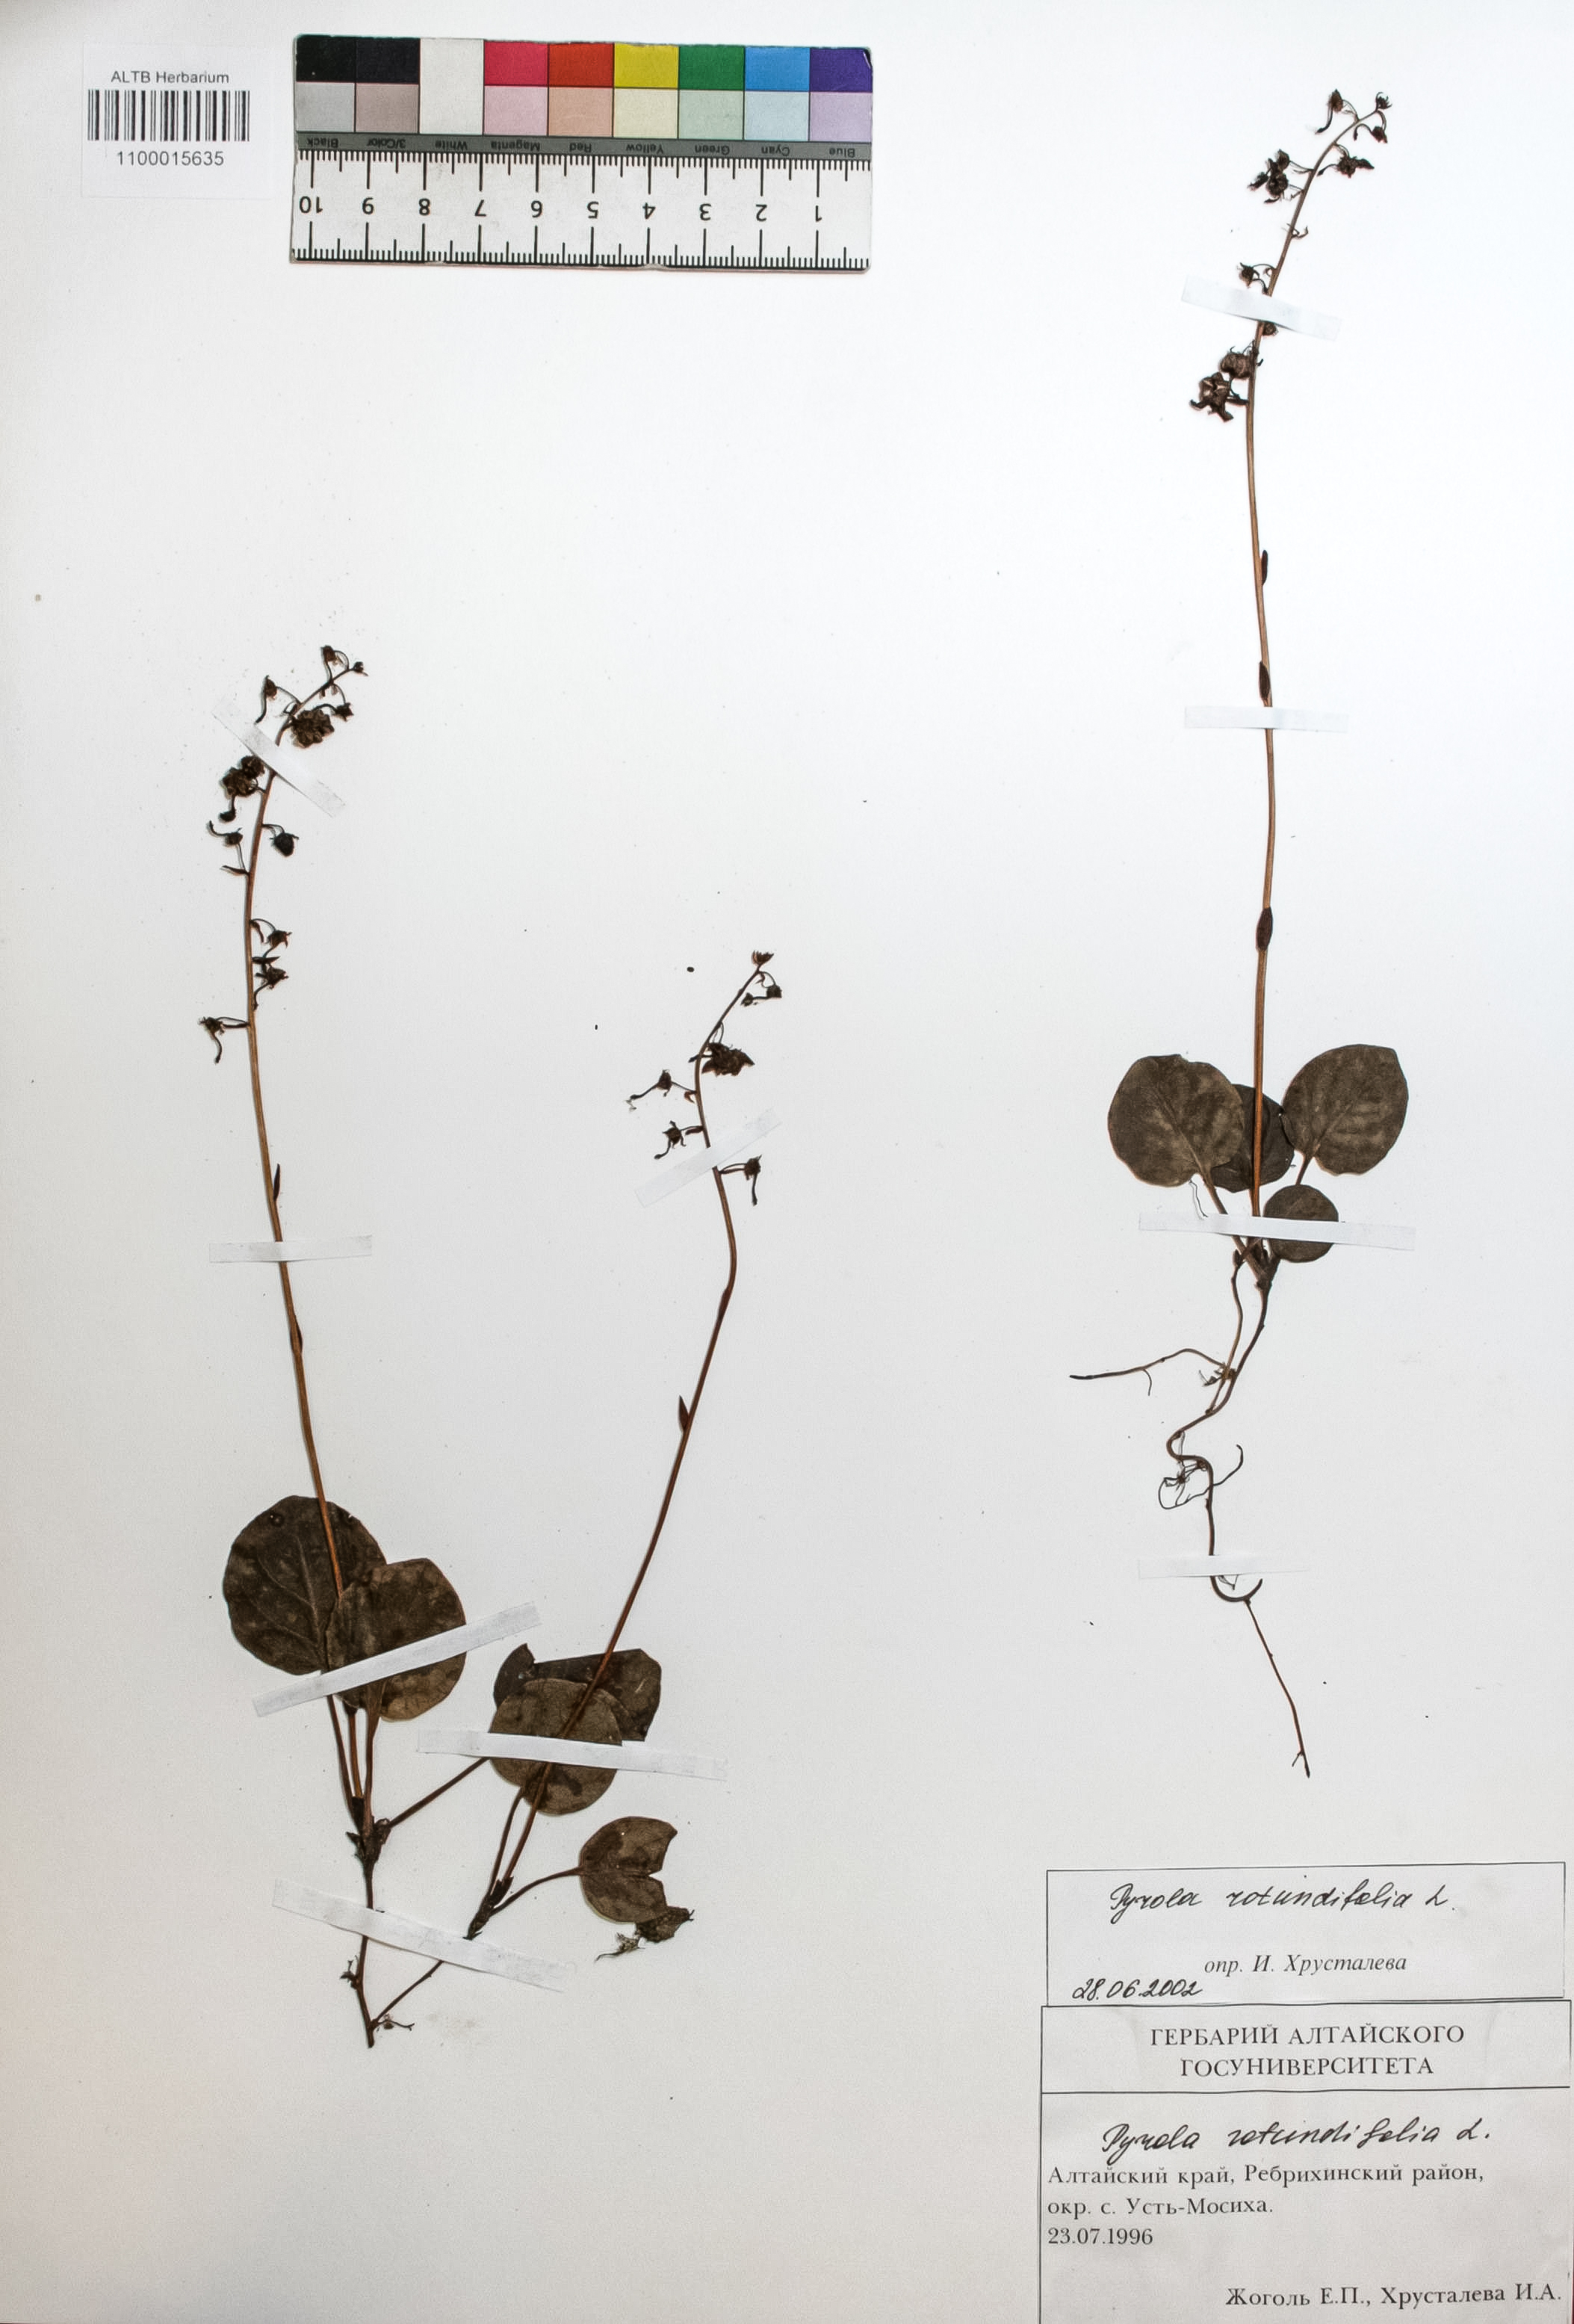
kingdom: Plantae
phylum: Tracheophyta
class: Magnoliopsida
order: Ericales
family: Ericaceae
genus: Pyrola
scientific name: Pyrola rotundifolia
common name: Round-leaved wintergreen
